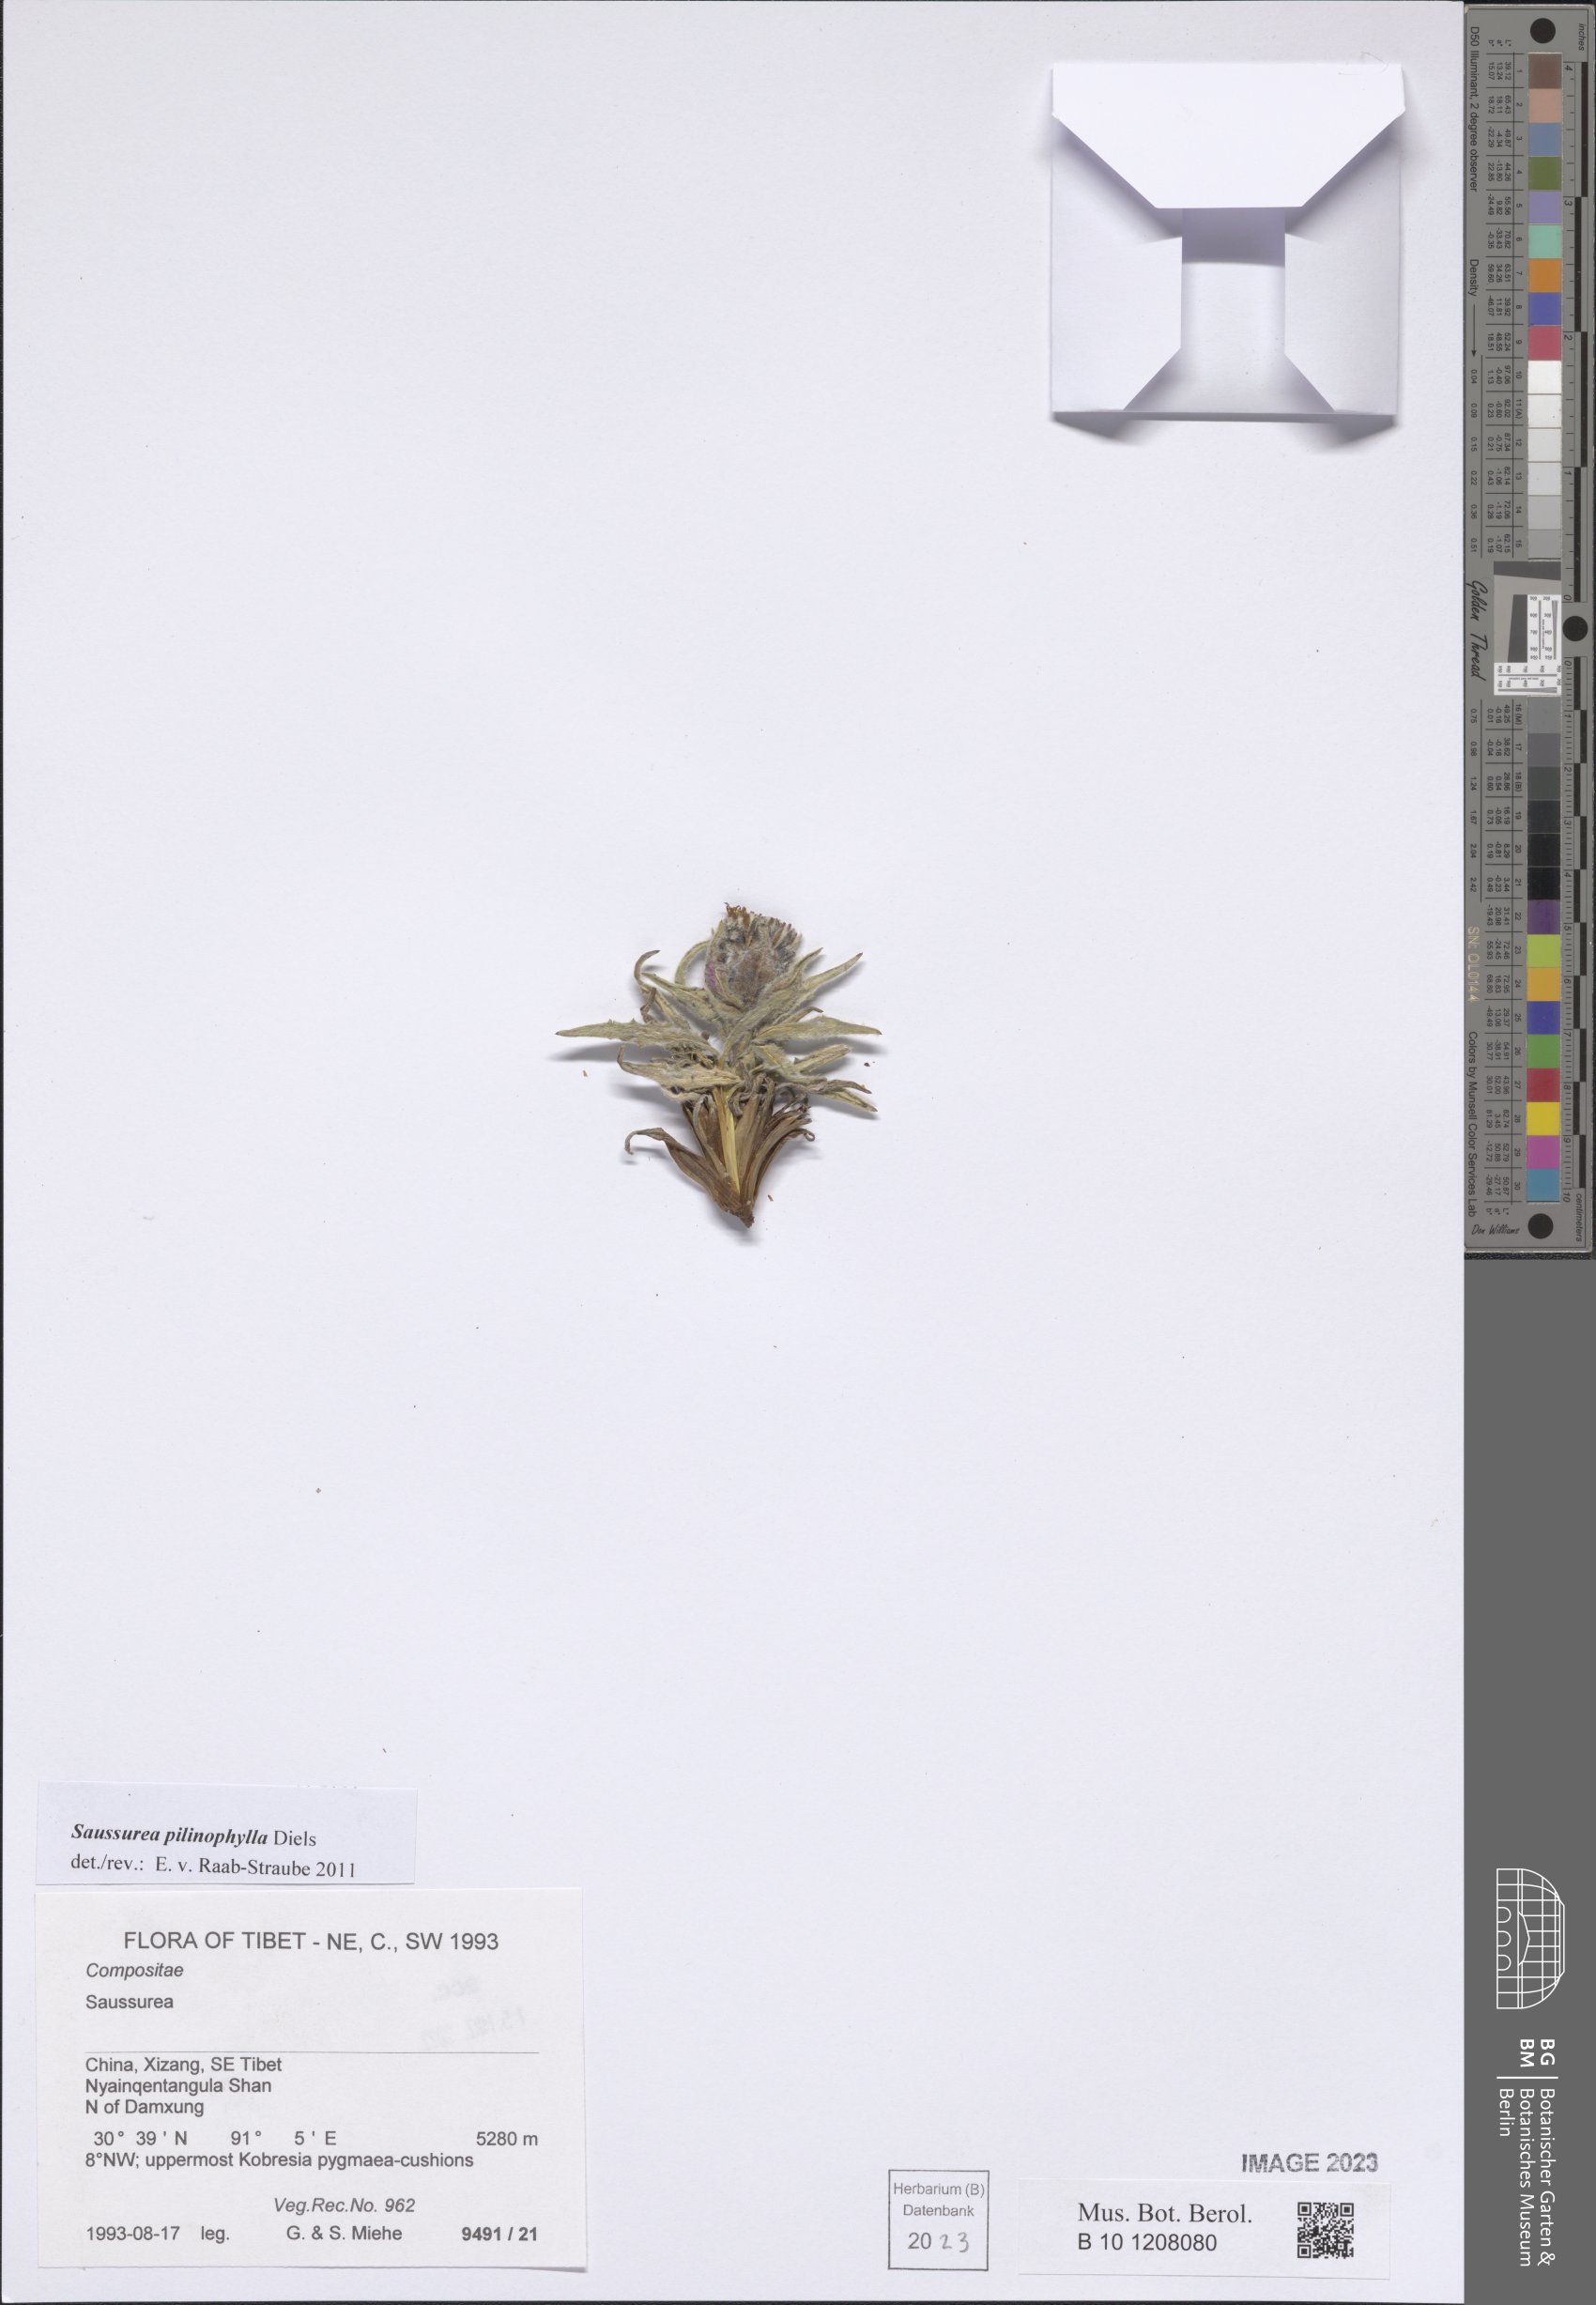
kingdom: Plantae
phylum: Tracheophyta
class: Magnoliopsida
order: Asterales
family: Asteraceae
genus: Saussurea
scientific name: Saussurea pilinophylla
